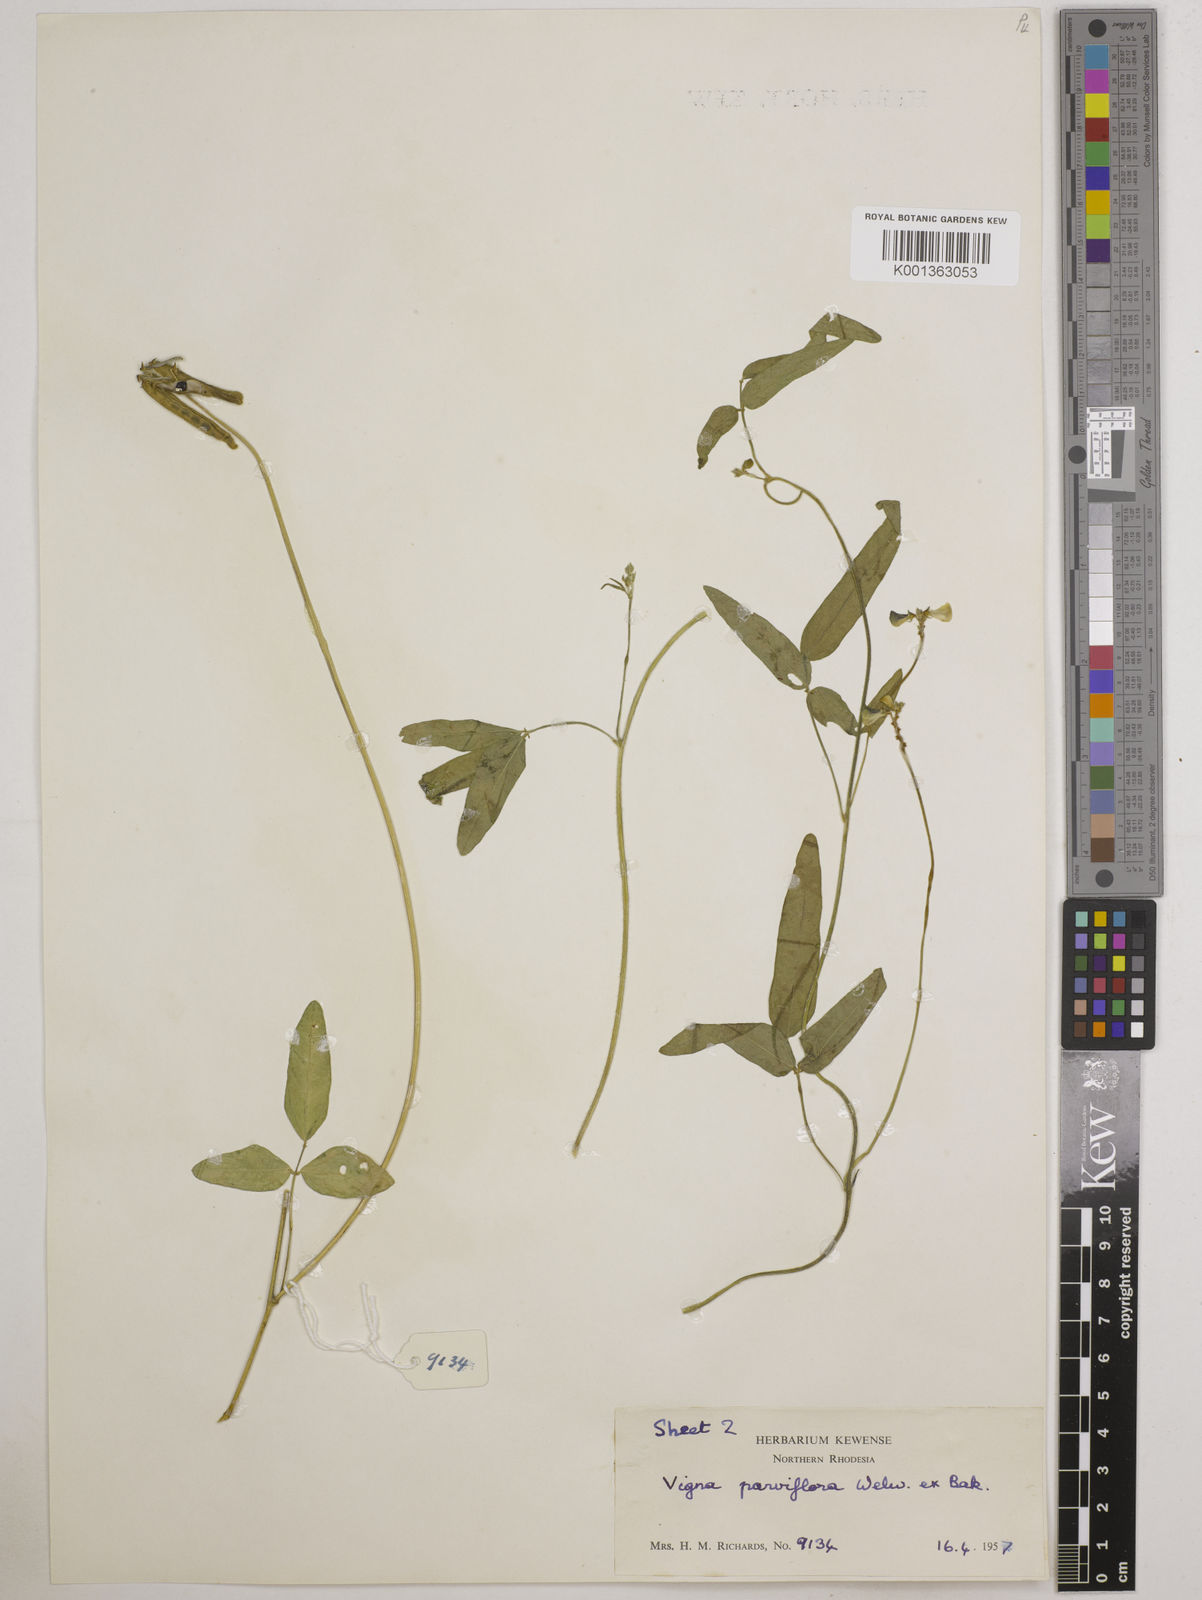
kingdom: Plantae
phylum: Tracheophyta
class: Magnoliopsida
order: Fabales
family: Fabaceae
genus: Vigna
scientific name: Vigna
